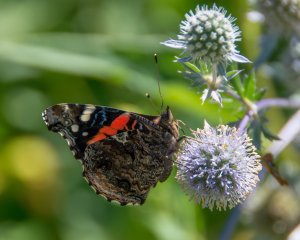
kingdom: Animalia
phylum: Arthropoda
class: Insecta
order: Lepidoptera
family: Nymphalidae
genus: Vanessa
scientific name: Vanessa atalanta
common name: Red Admiral
